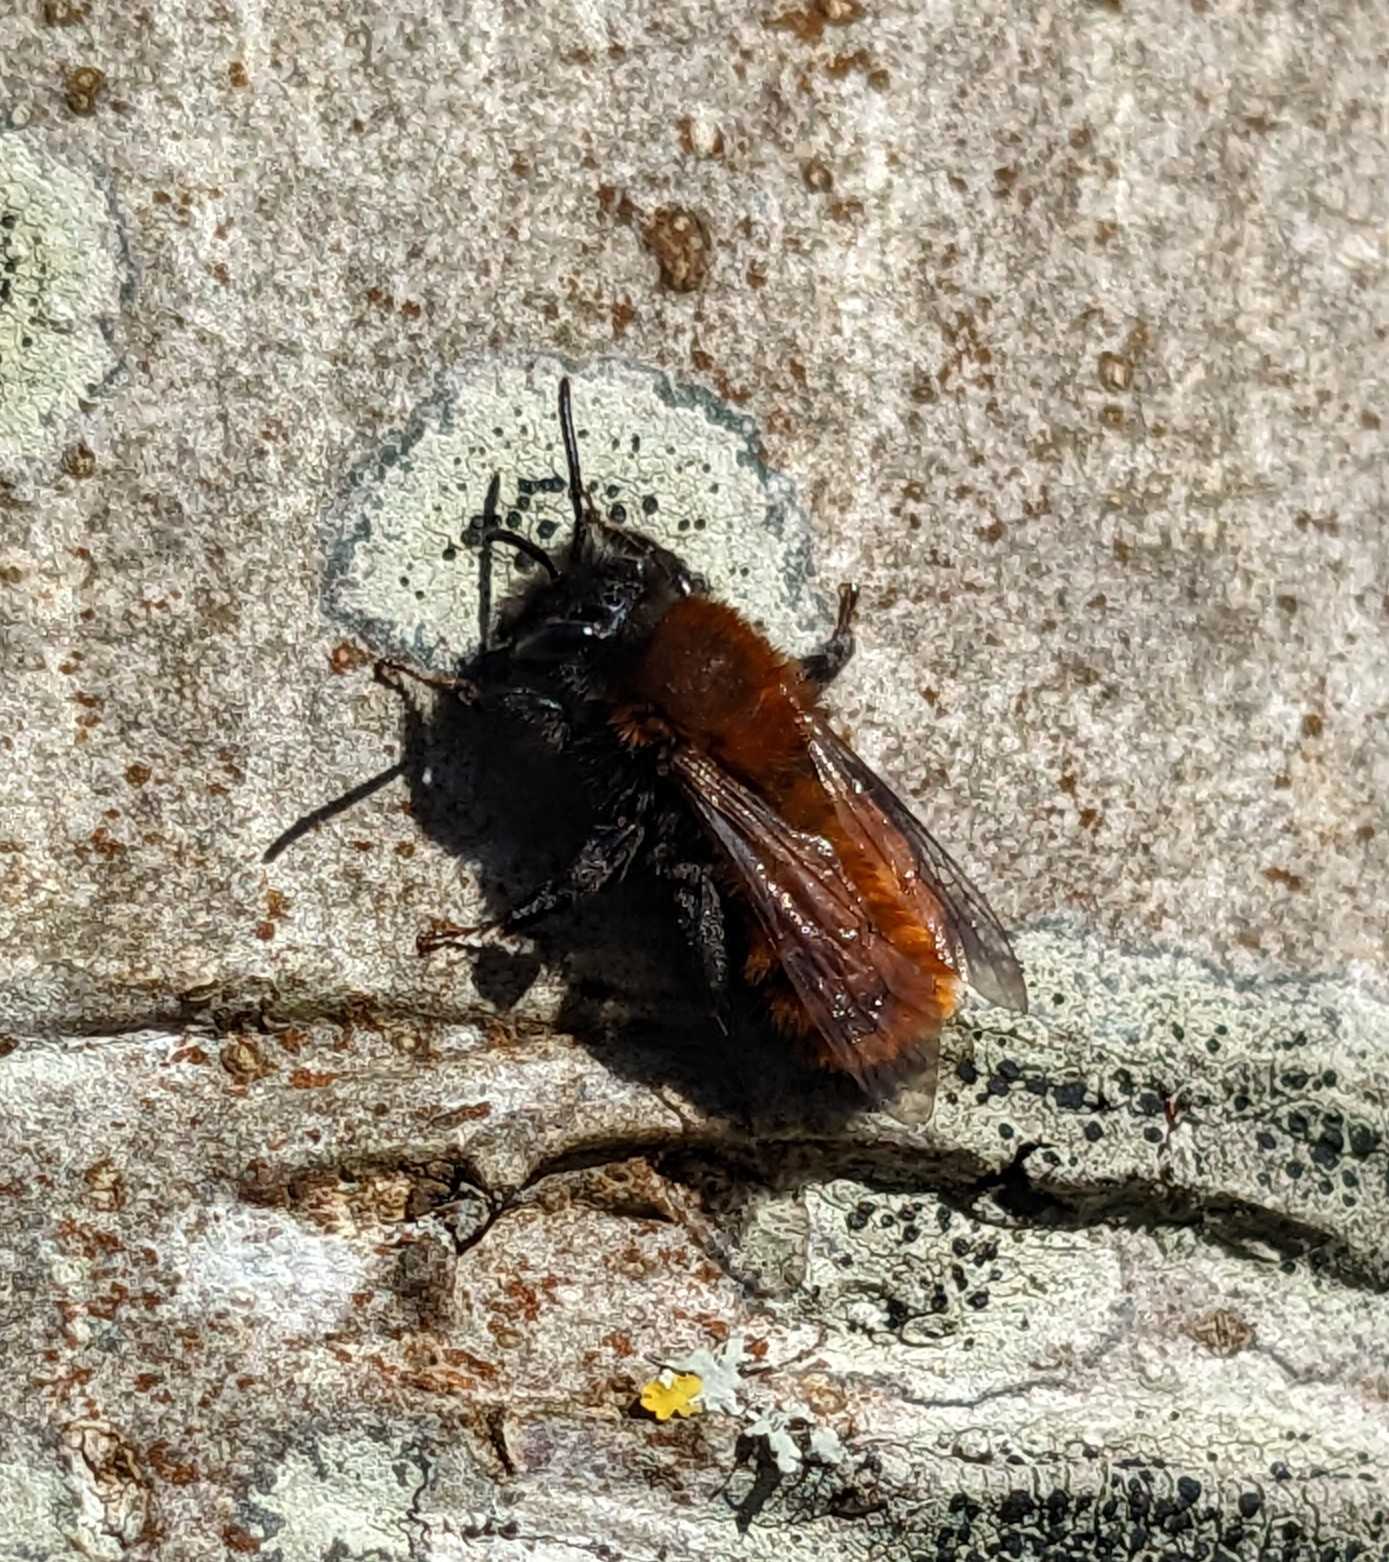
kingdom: Animalia
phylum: Arthropoda
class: Insecta
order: Hymenoptera
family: Andrenidae
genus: Andrena
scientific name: Andrena fulva
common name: Rødpelset jordbi
